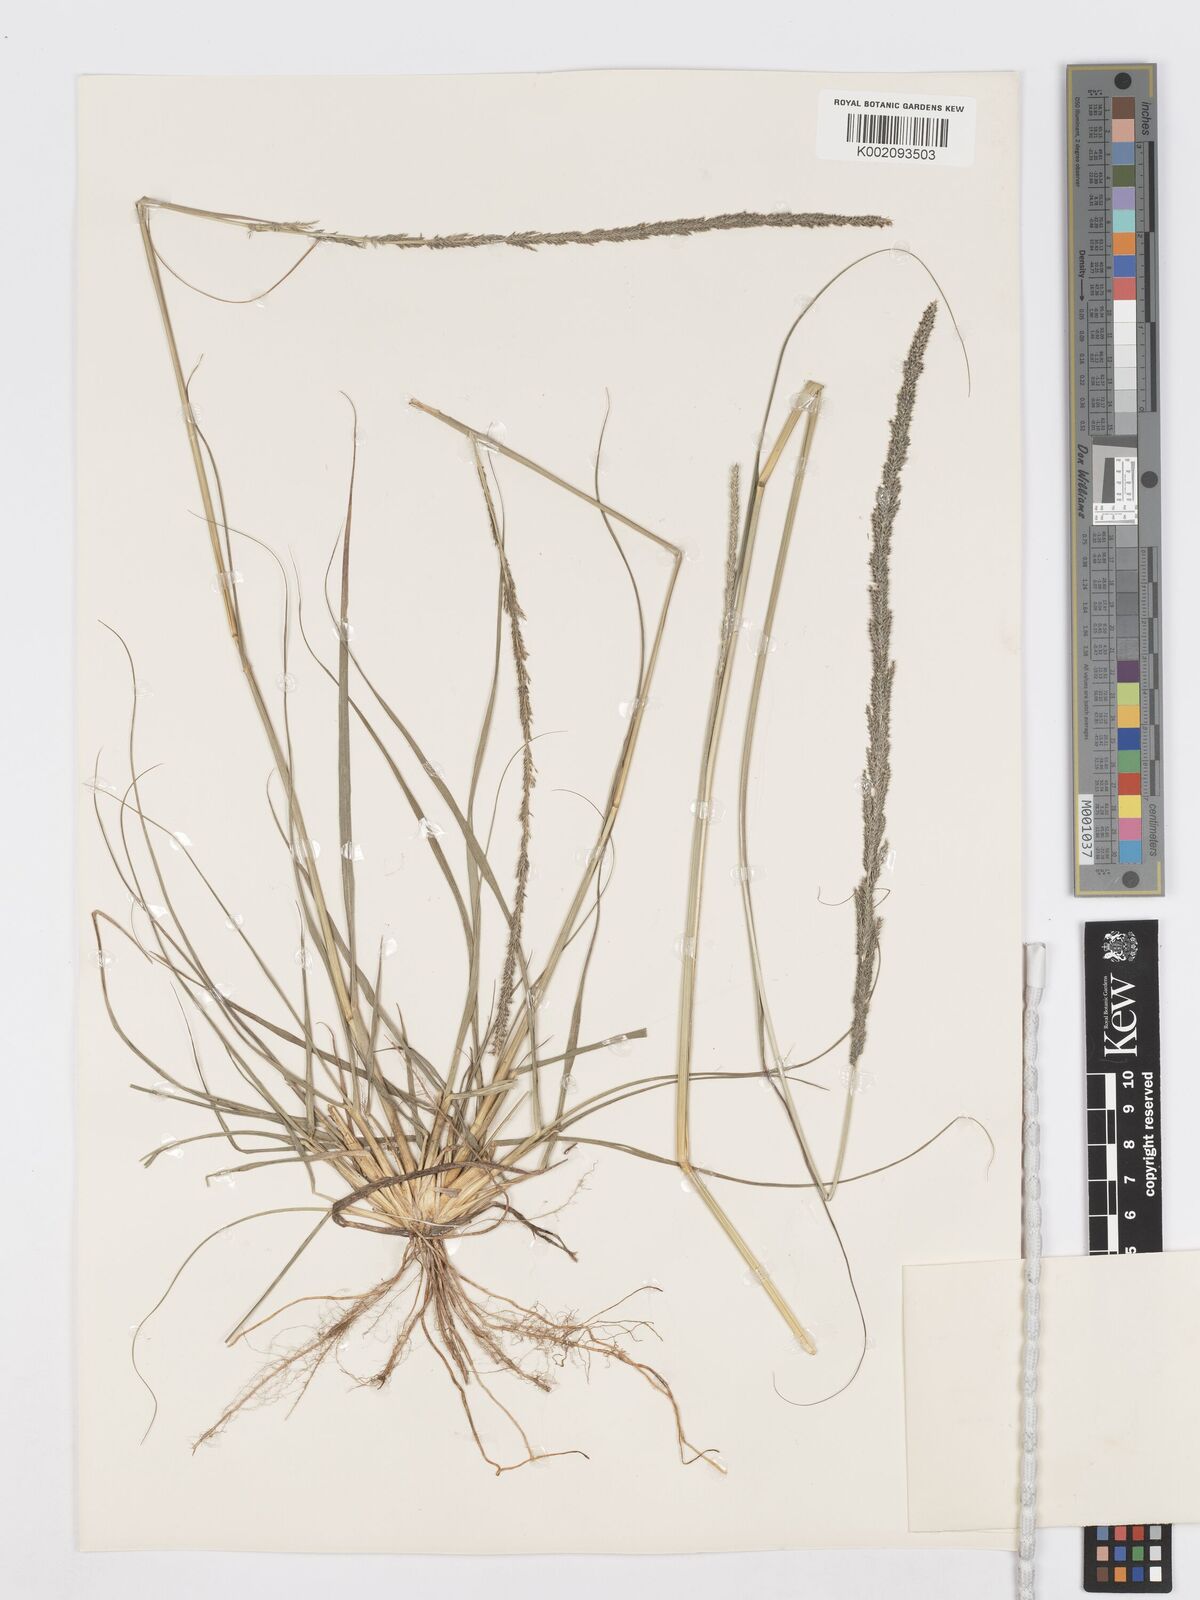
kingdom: Plantae
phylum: Tracheophyta
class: Liliopsida
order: Poales
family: Poaceae
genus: Sporobolus
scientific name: Sporobolus africanus
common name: African dropseed
